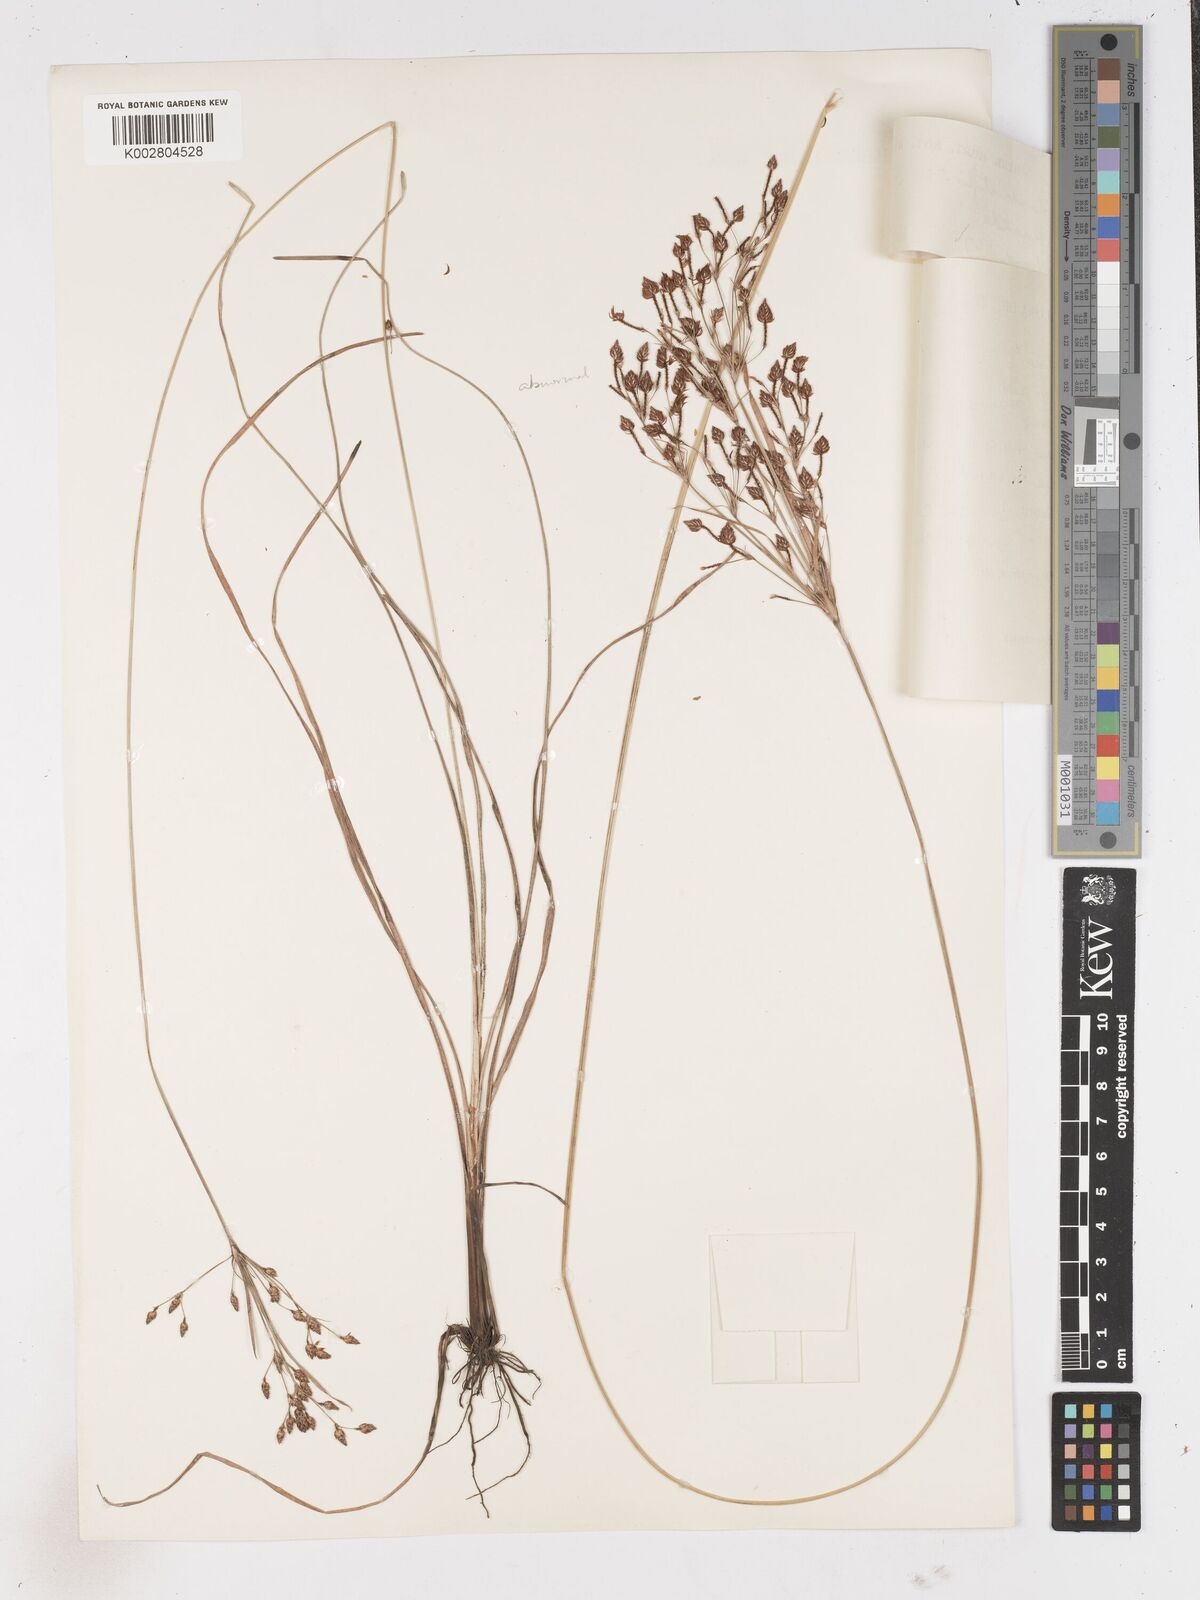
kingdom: Plantae
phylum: Tracheophyta
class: Liliopsida
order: Poales
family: Cyperaceae
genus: Fimbristylis
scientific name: Fimbristylis dichotoma
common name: Forked fimbry
